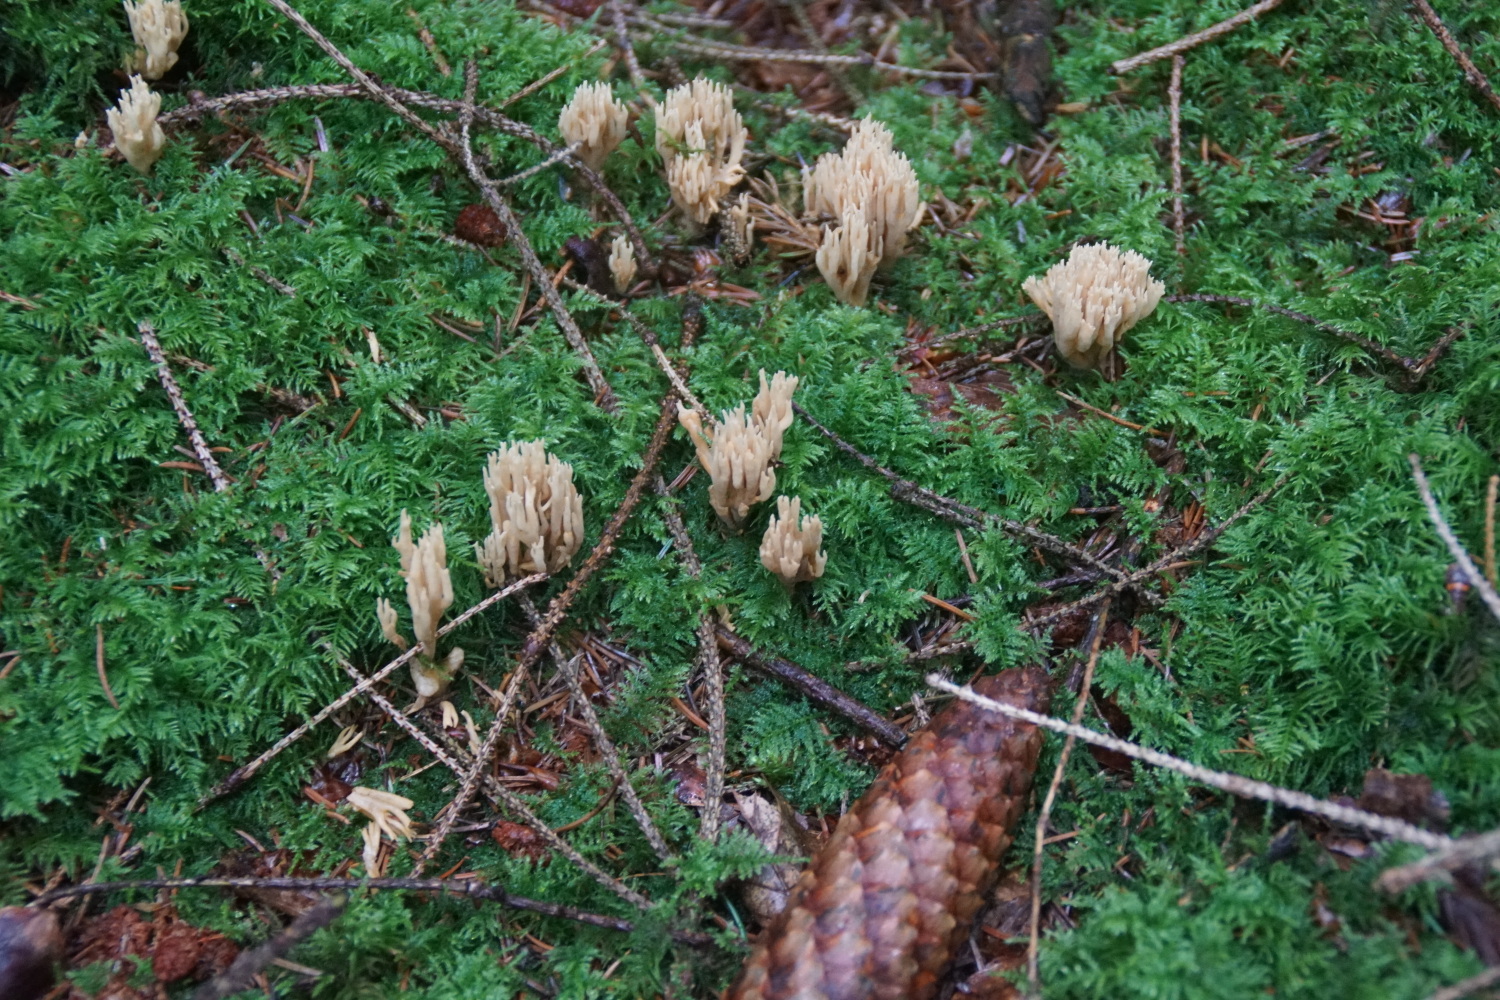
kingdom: Fungi
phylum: Basidiomycota
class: Agaricomycetes
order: Gomphales
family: Gomphaceae
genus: Phaeoclavulina
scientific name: Phaeoclavulina eumorpha
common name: gran-koralsvamp
